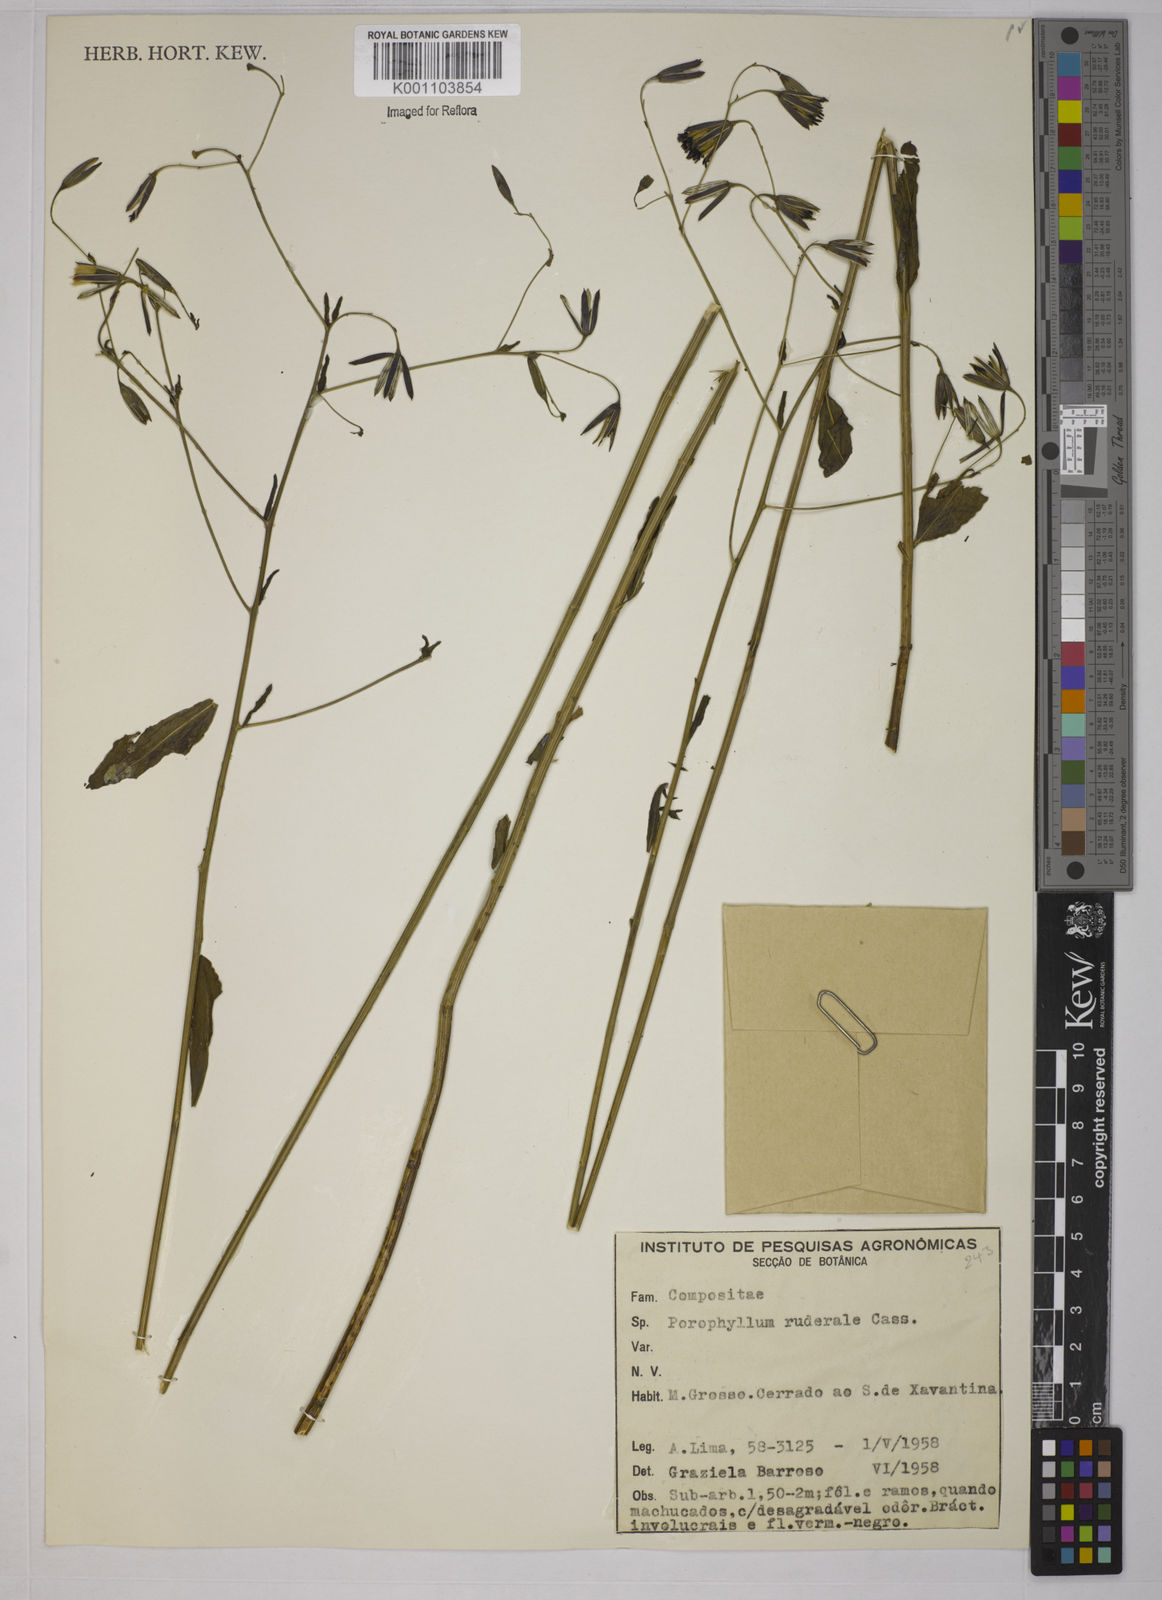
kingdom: Plantae
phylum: Tracheophyta
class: Magnoliopsida
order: Asterales
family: Asteraceae
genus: Porophyllum
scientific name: Porophyllum ruderale
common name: Yerba porosa
